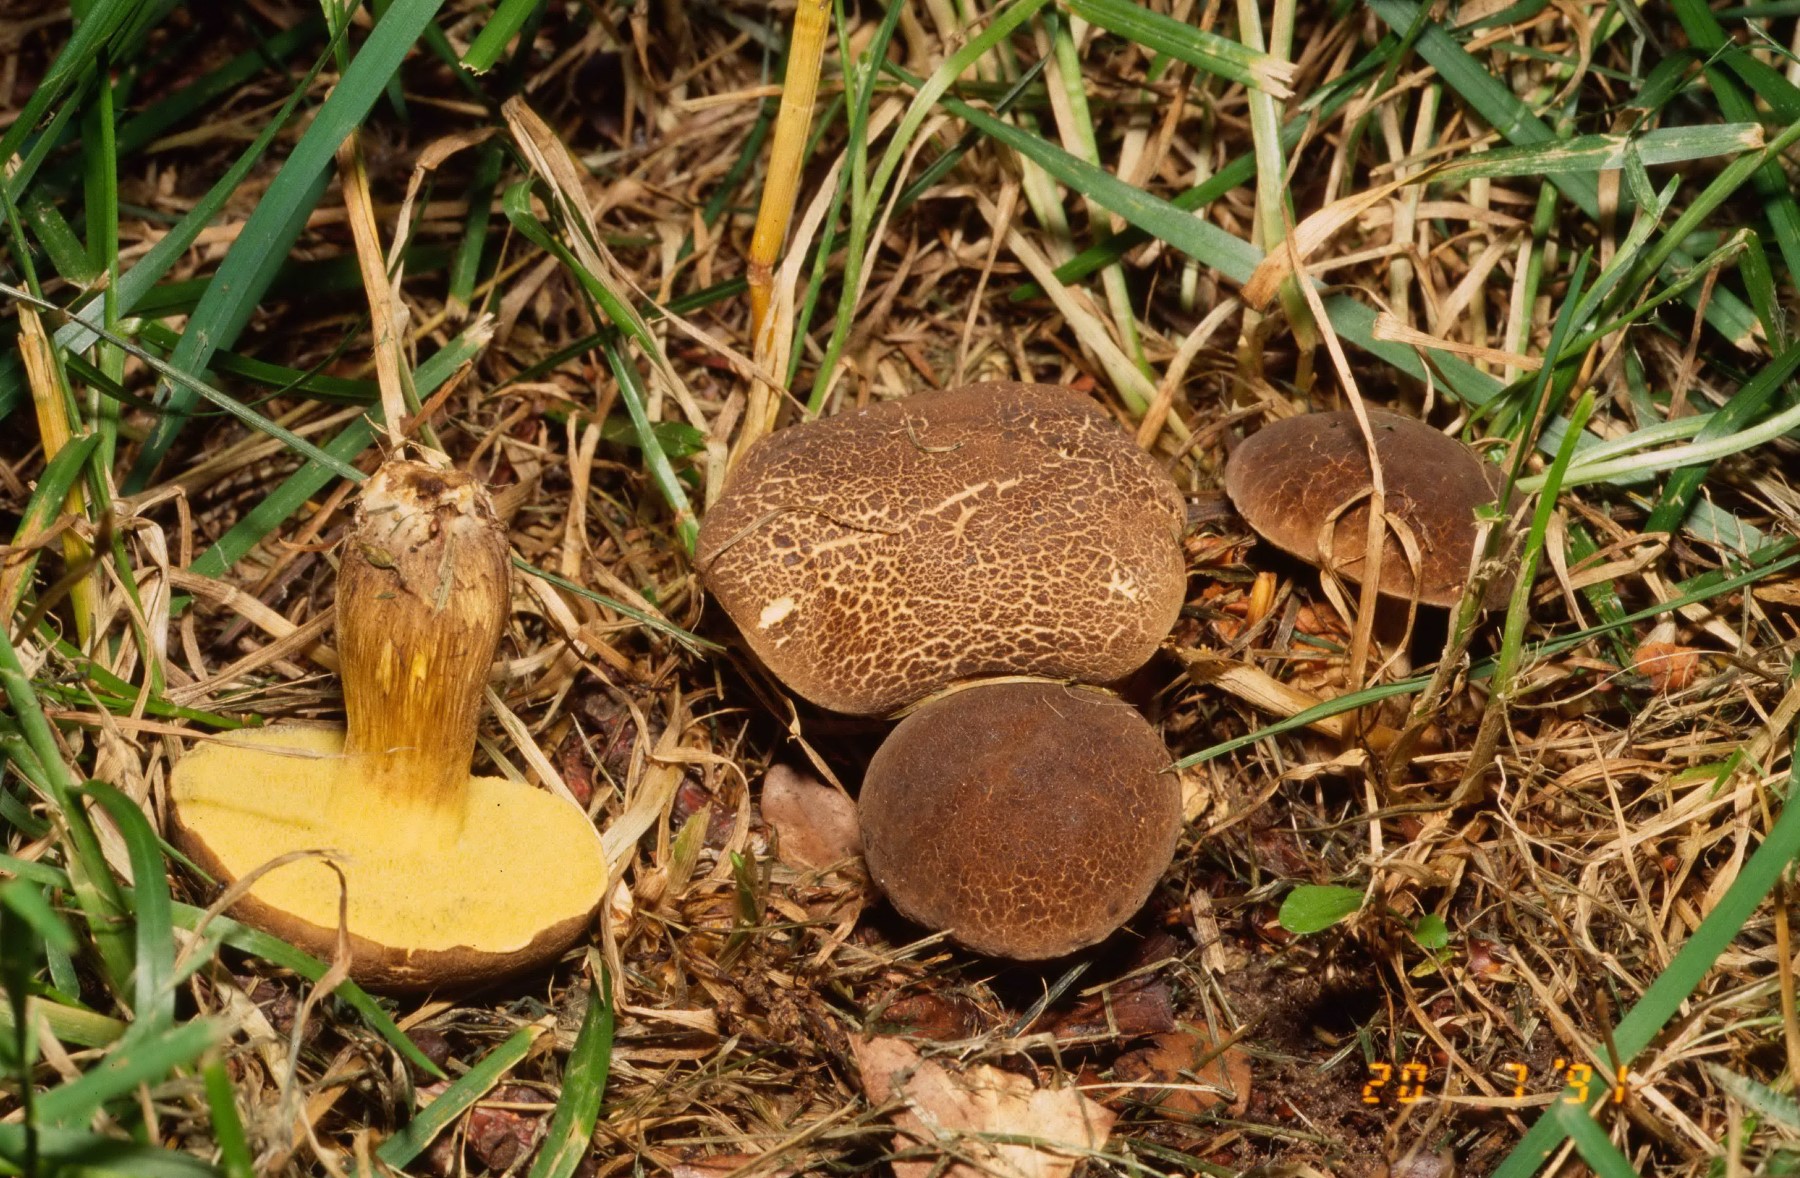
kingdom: Fungi
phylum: Basidiomycota
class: Agaricomycetes
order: Boletales
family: Boletaceae
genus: Xerocomellus
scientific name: Xerocomellus porosporus
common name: hvidsprukken rørhat
